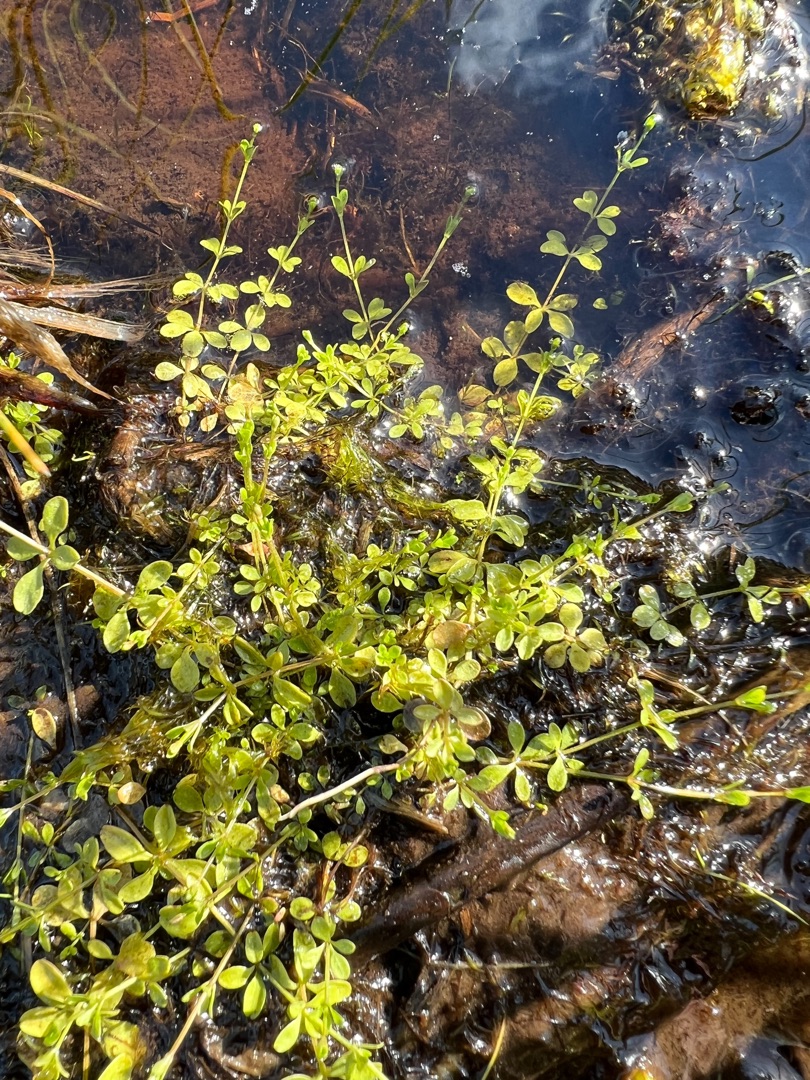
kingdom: Plantae
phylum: Tracheophyta
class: Magnoliopsida
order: Gentianales
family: Rubiaceae
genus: Galium
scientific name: Galium palustre
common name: Kær-snerre
